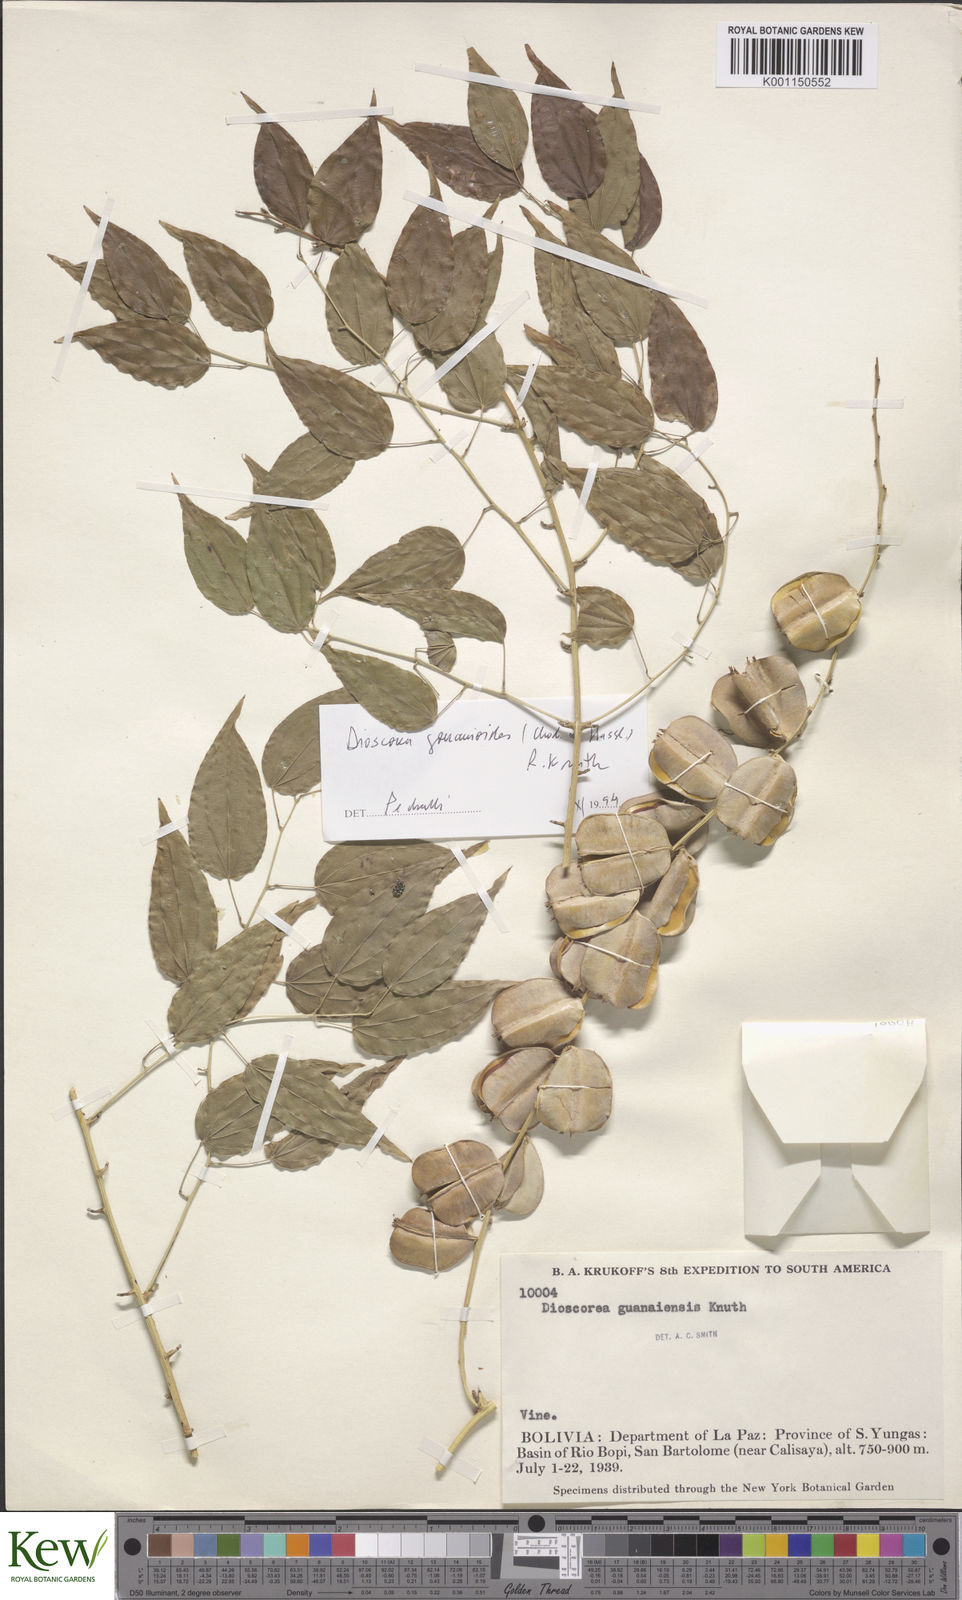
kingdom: Plantae
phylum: Tracheophyta
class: Liliopsida
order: Dioscoreales
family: Dioscoreaceae
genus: Dioscorea
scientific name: Dioscorea acanthogene
